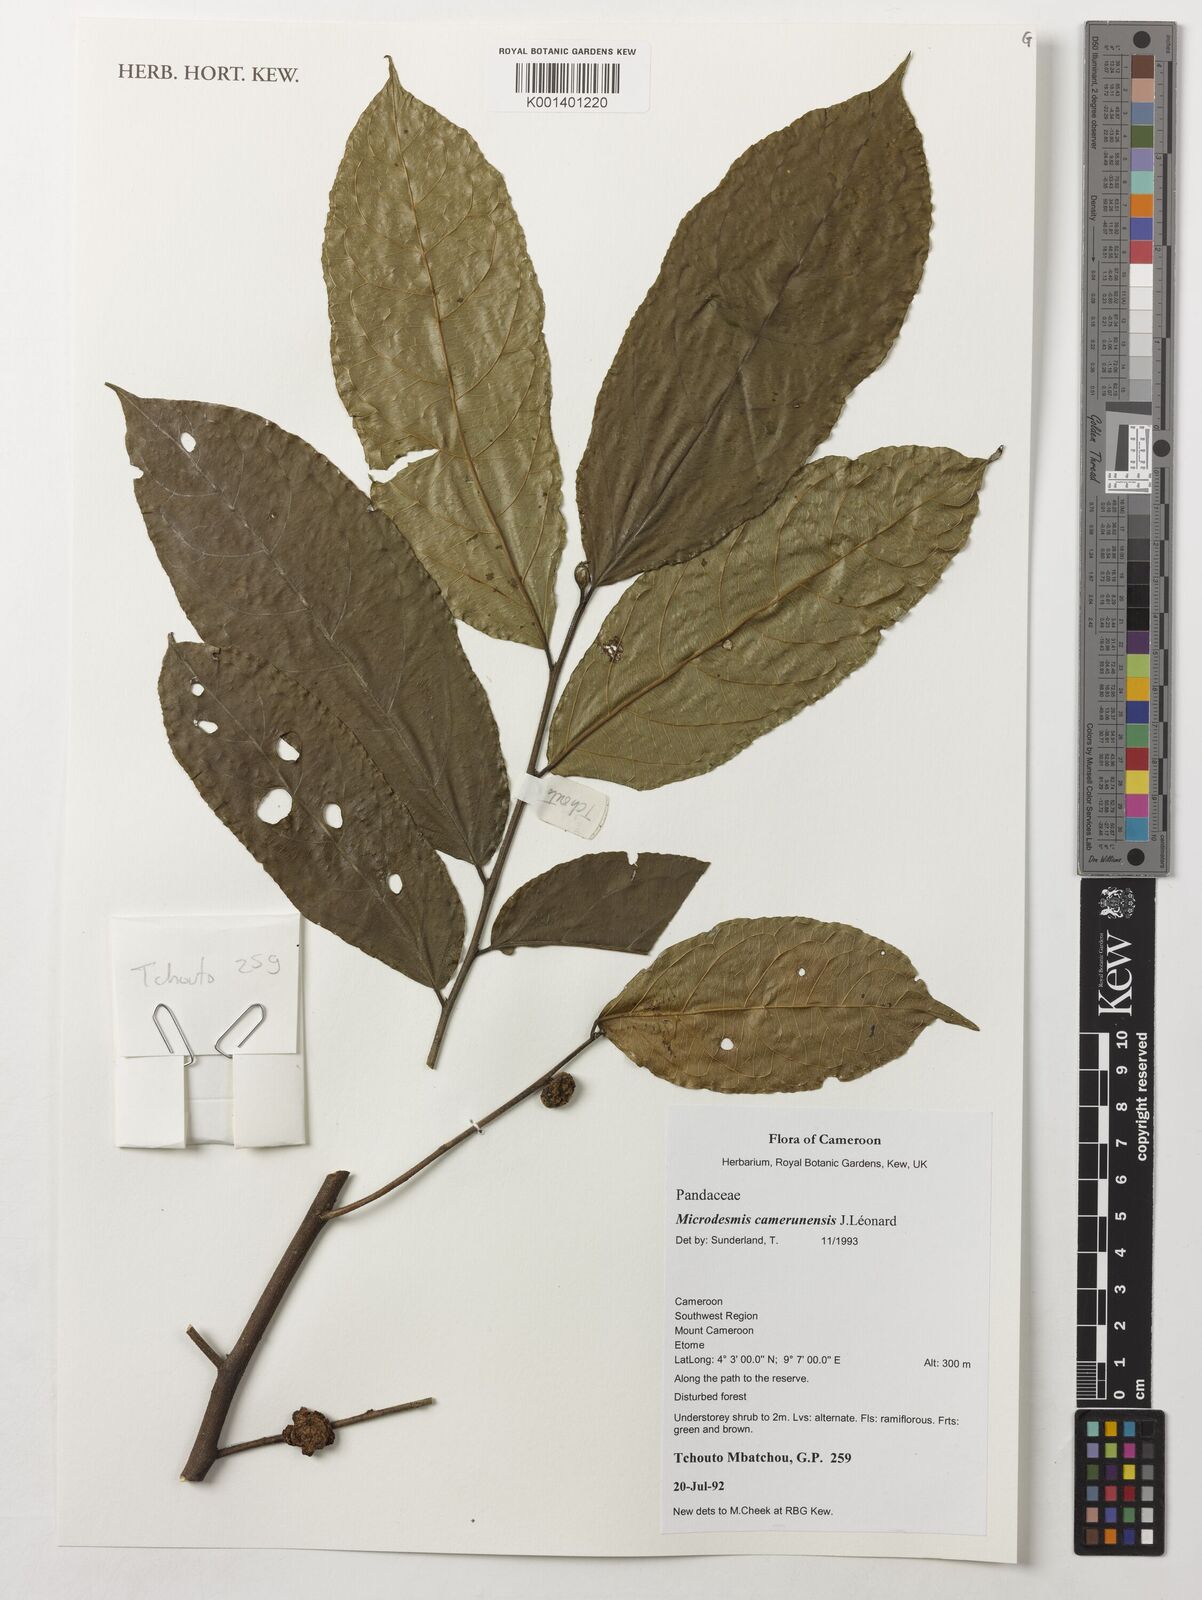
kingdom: Plantae
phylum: Tracheophyta
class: Magnoliopsida
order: Malpighiales
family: Pandaceae
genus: Microdesmis
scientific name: Microdesmis camerunensis
